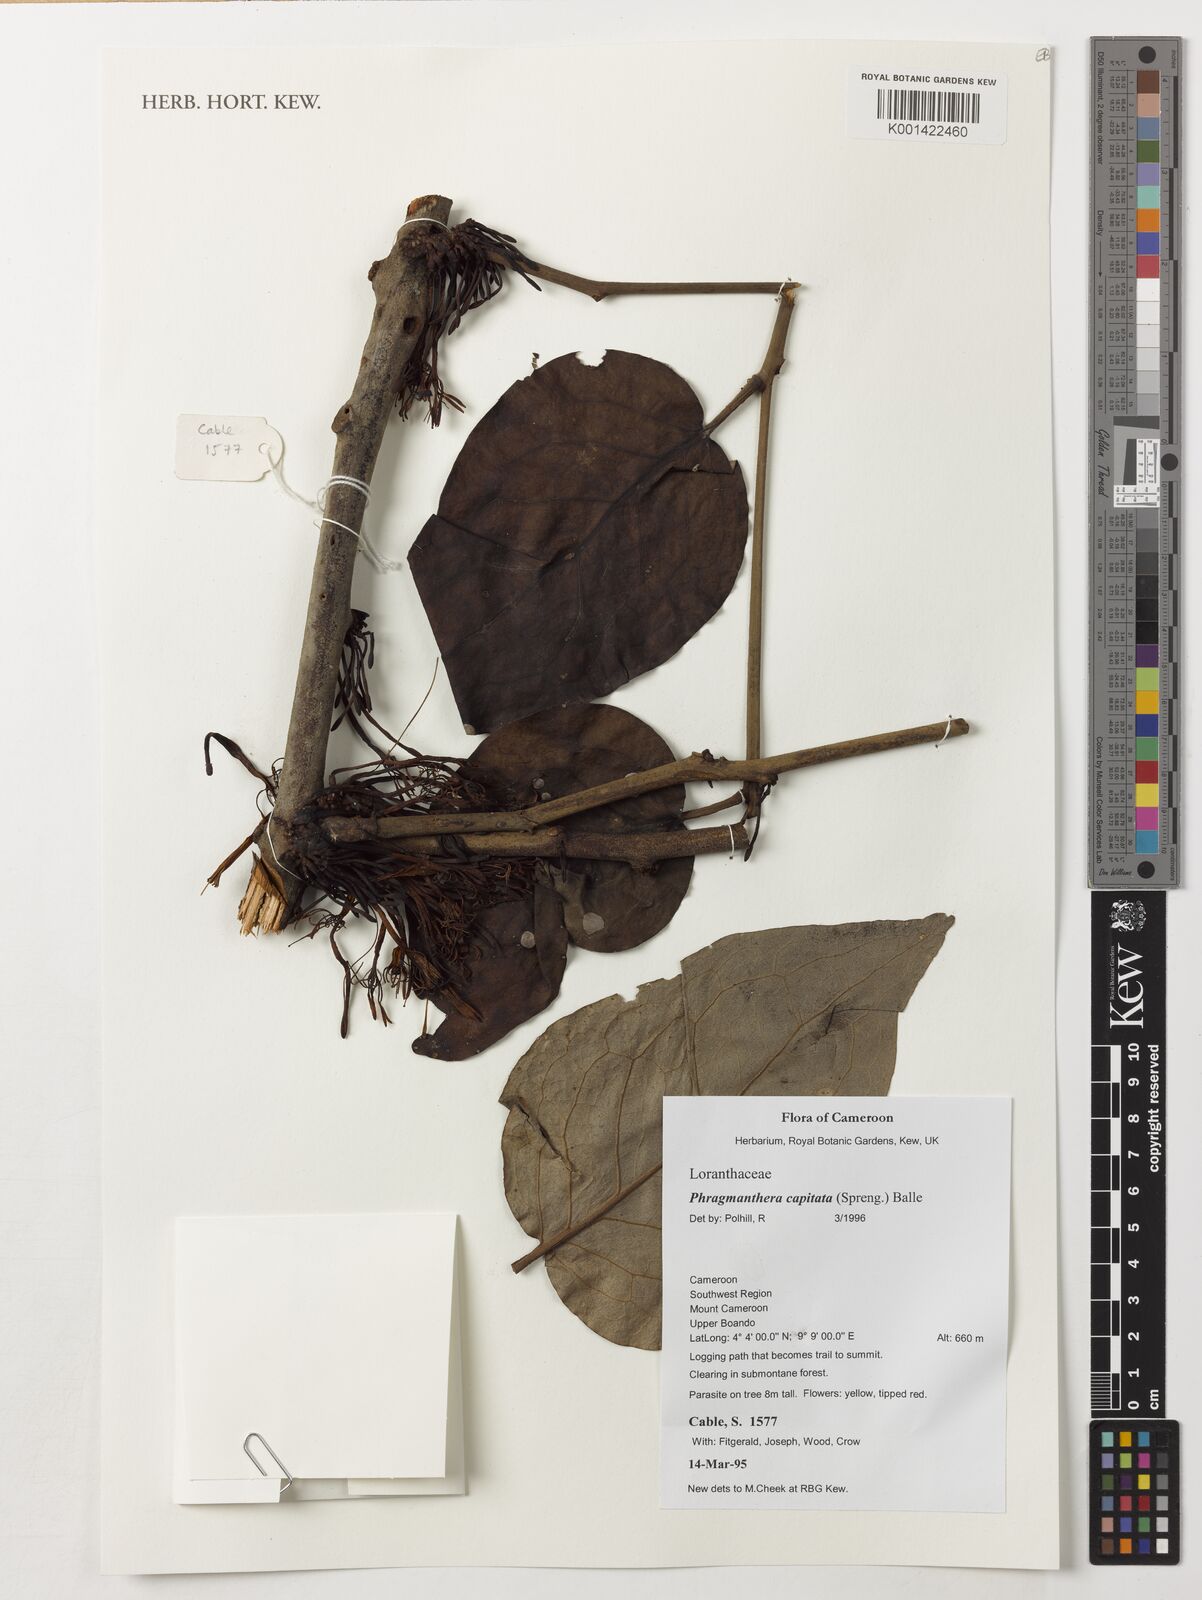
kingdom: Plantae
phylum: Tracheophyta
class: Magnoliopsida
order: Santalales
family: Loranthaceae
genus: Phragmanthera
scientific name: Phragmanthera capitata
